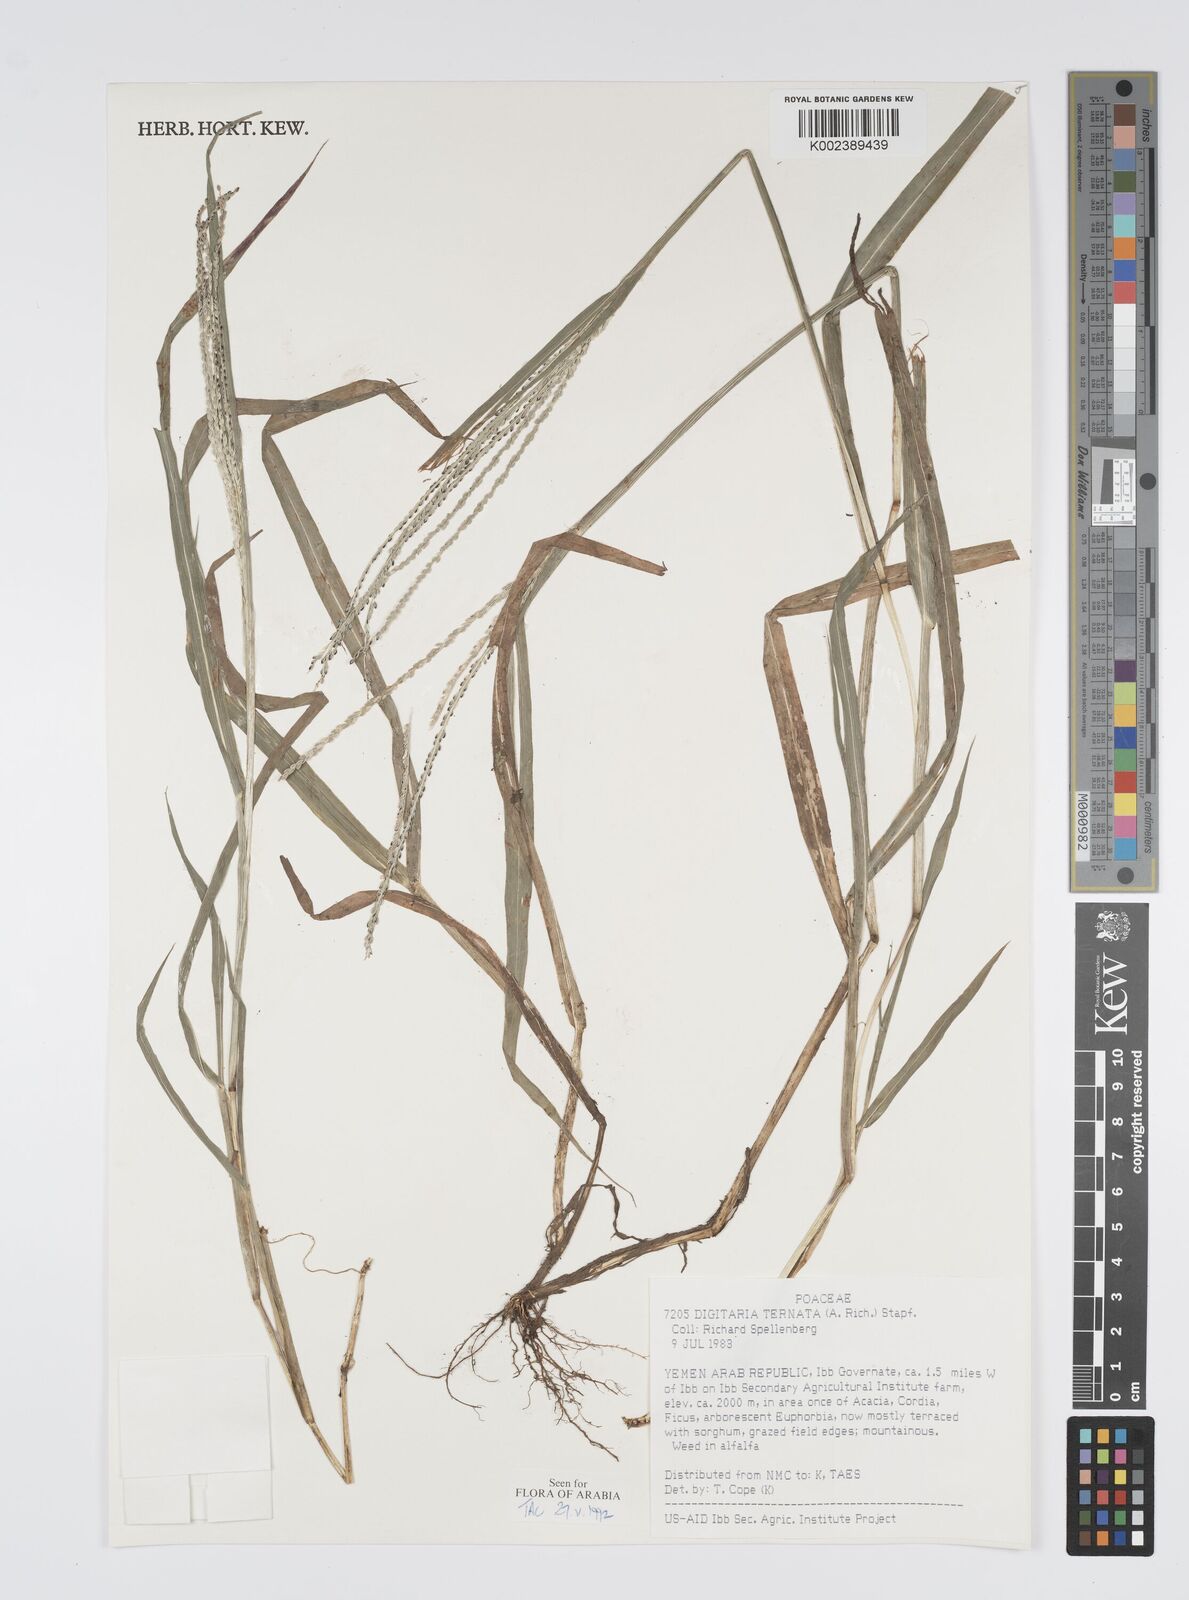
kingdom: Plantae
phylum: Tracheophyta
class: Liliopsida
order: Poales
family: Poaceae
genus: Digitaria
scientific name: Digitaria ternata
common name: Blackseed crabgrass
